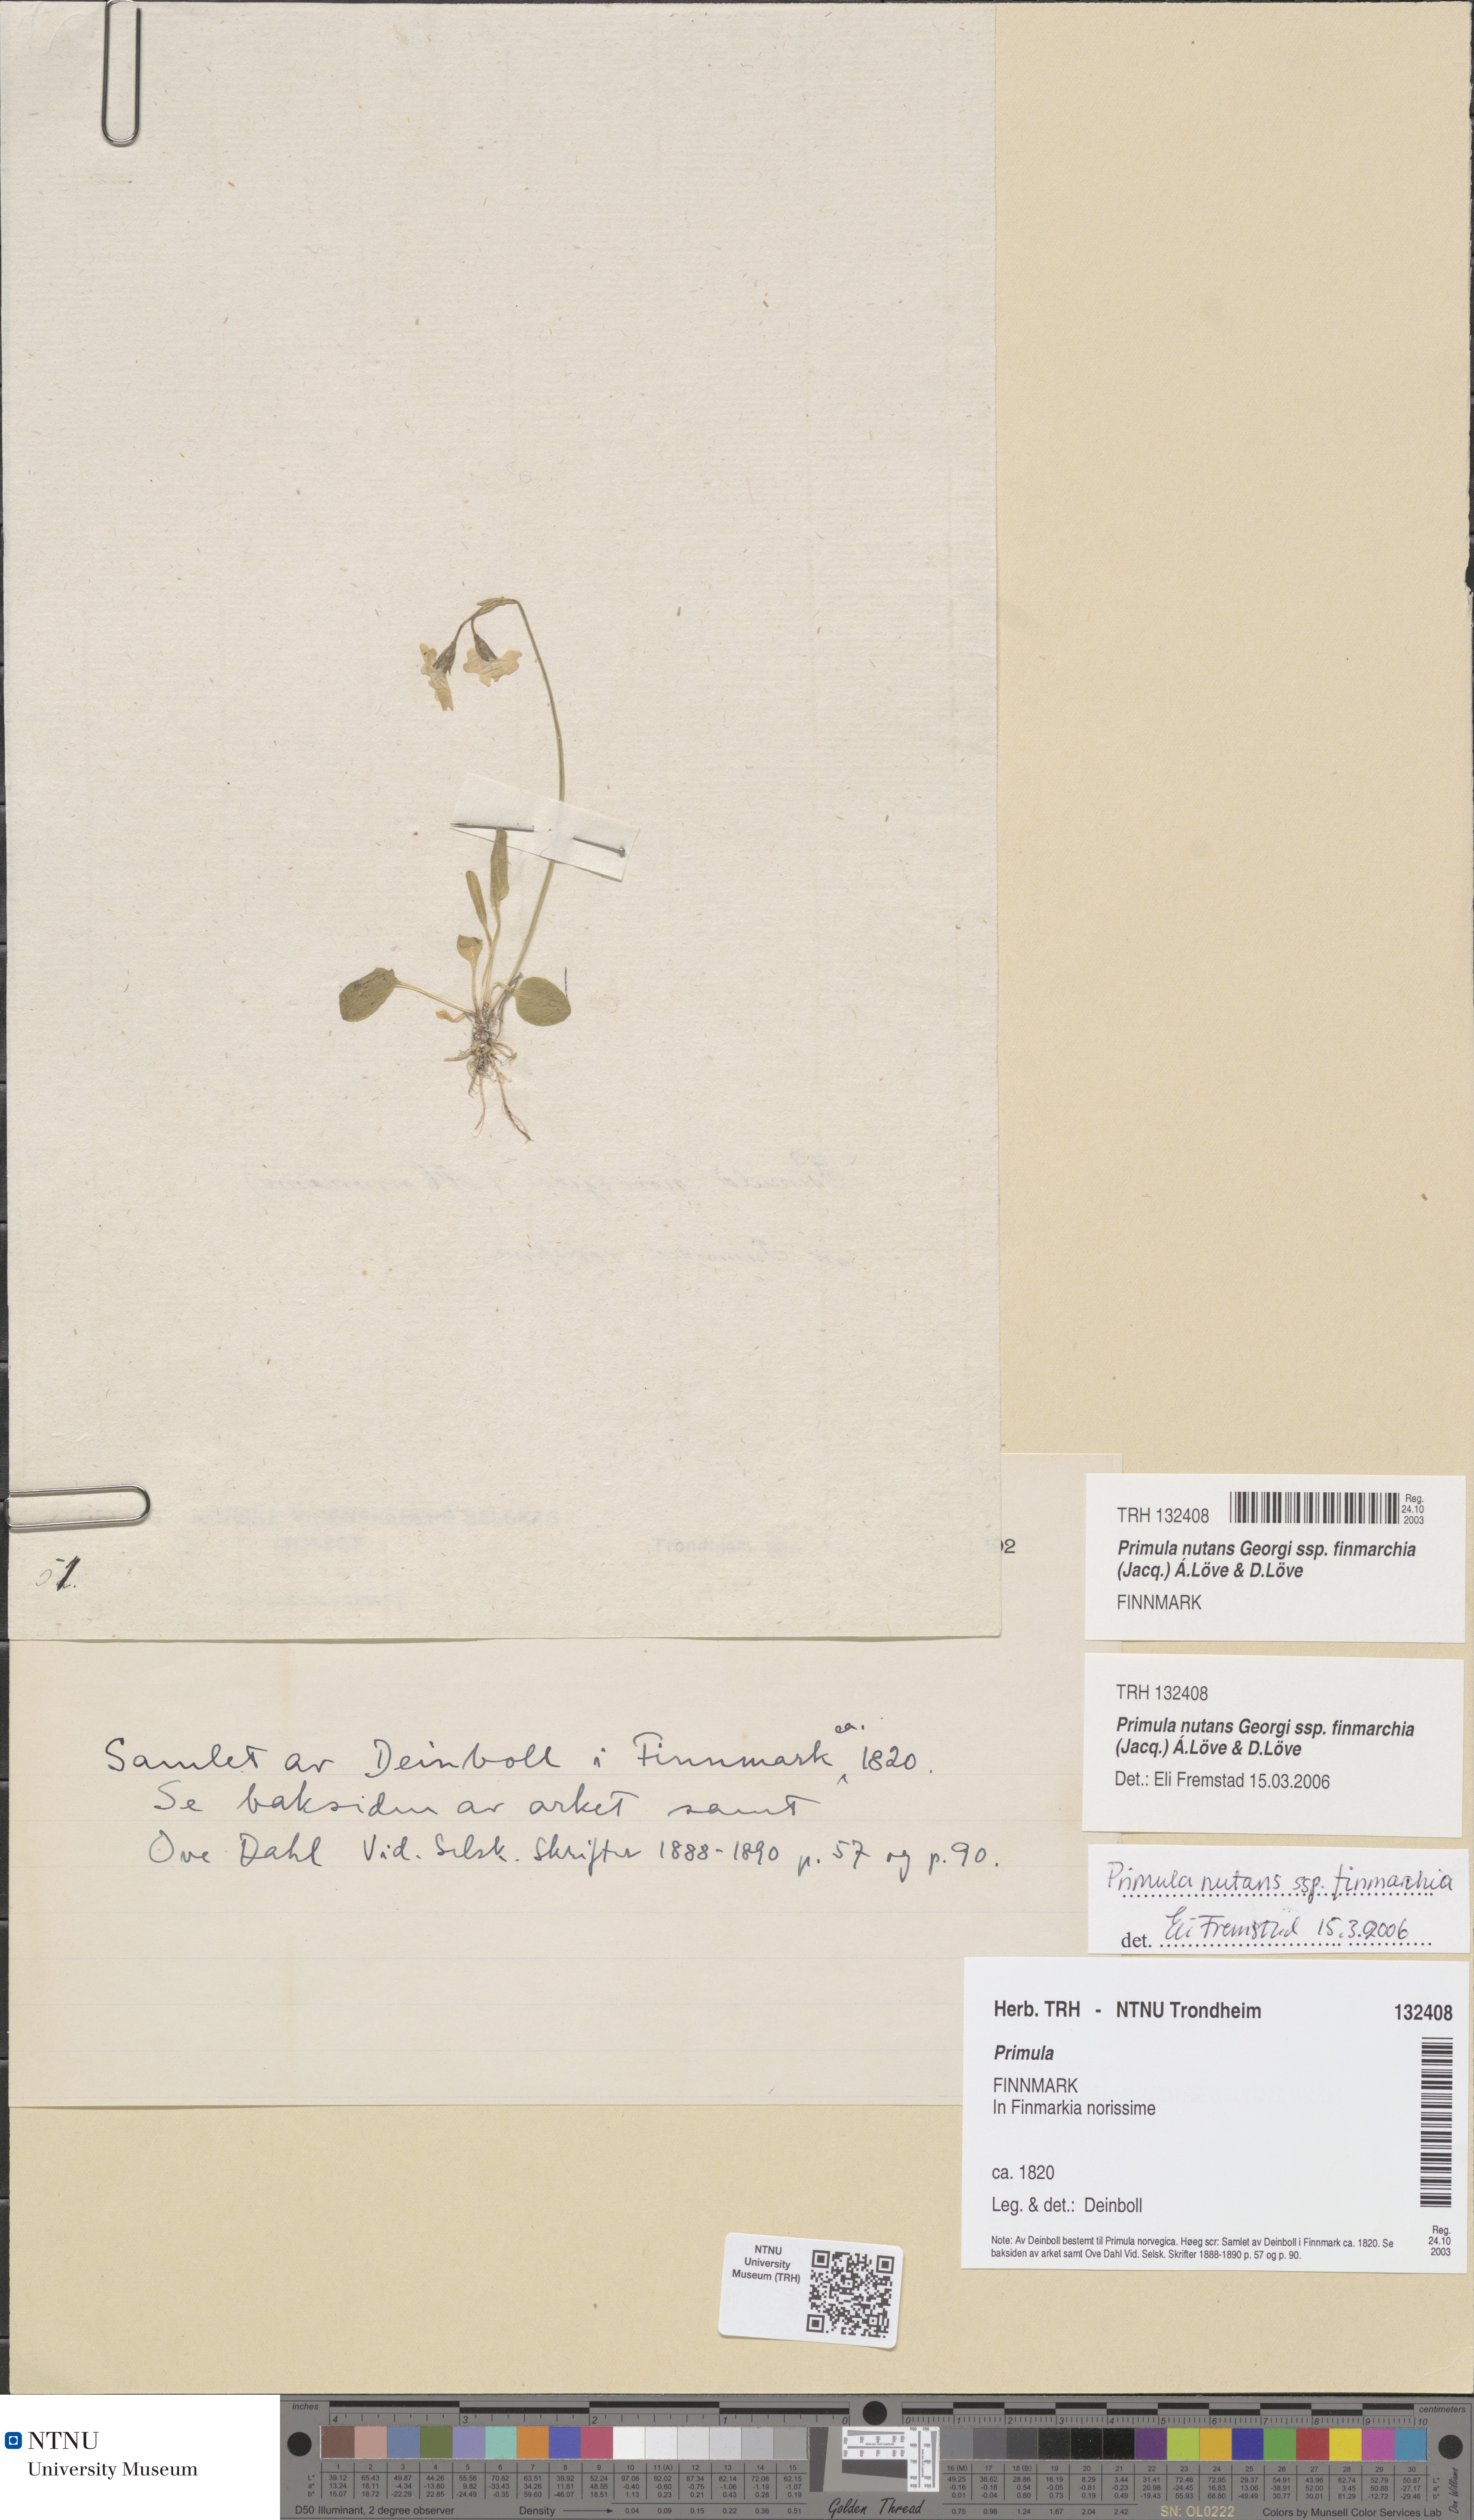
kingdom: Plantae
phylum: Tracheophyta
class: Magnoliopsida
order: Ericales
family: Primulaceae
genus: Primula
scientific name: Primula nutans
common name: Siberian primrose
